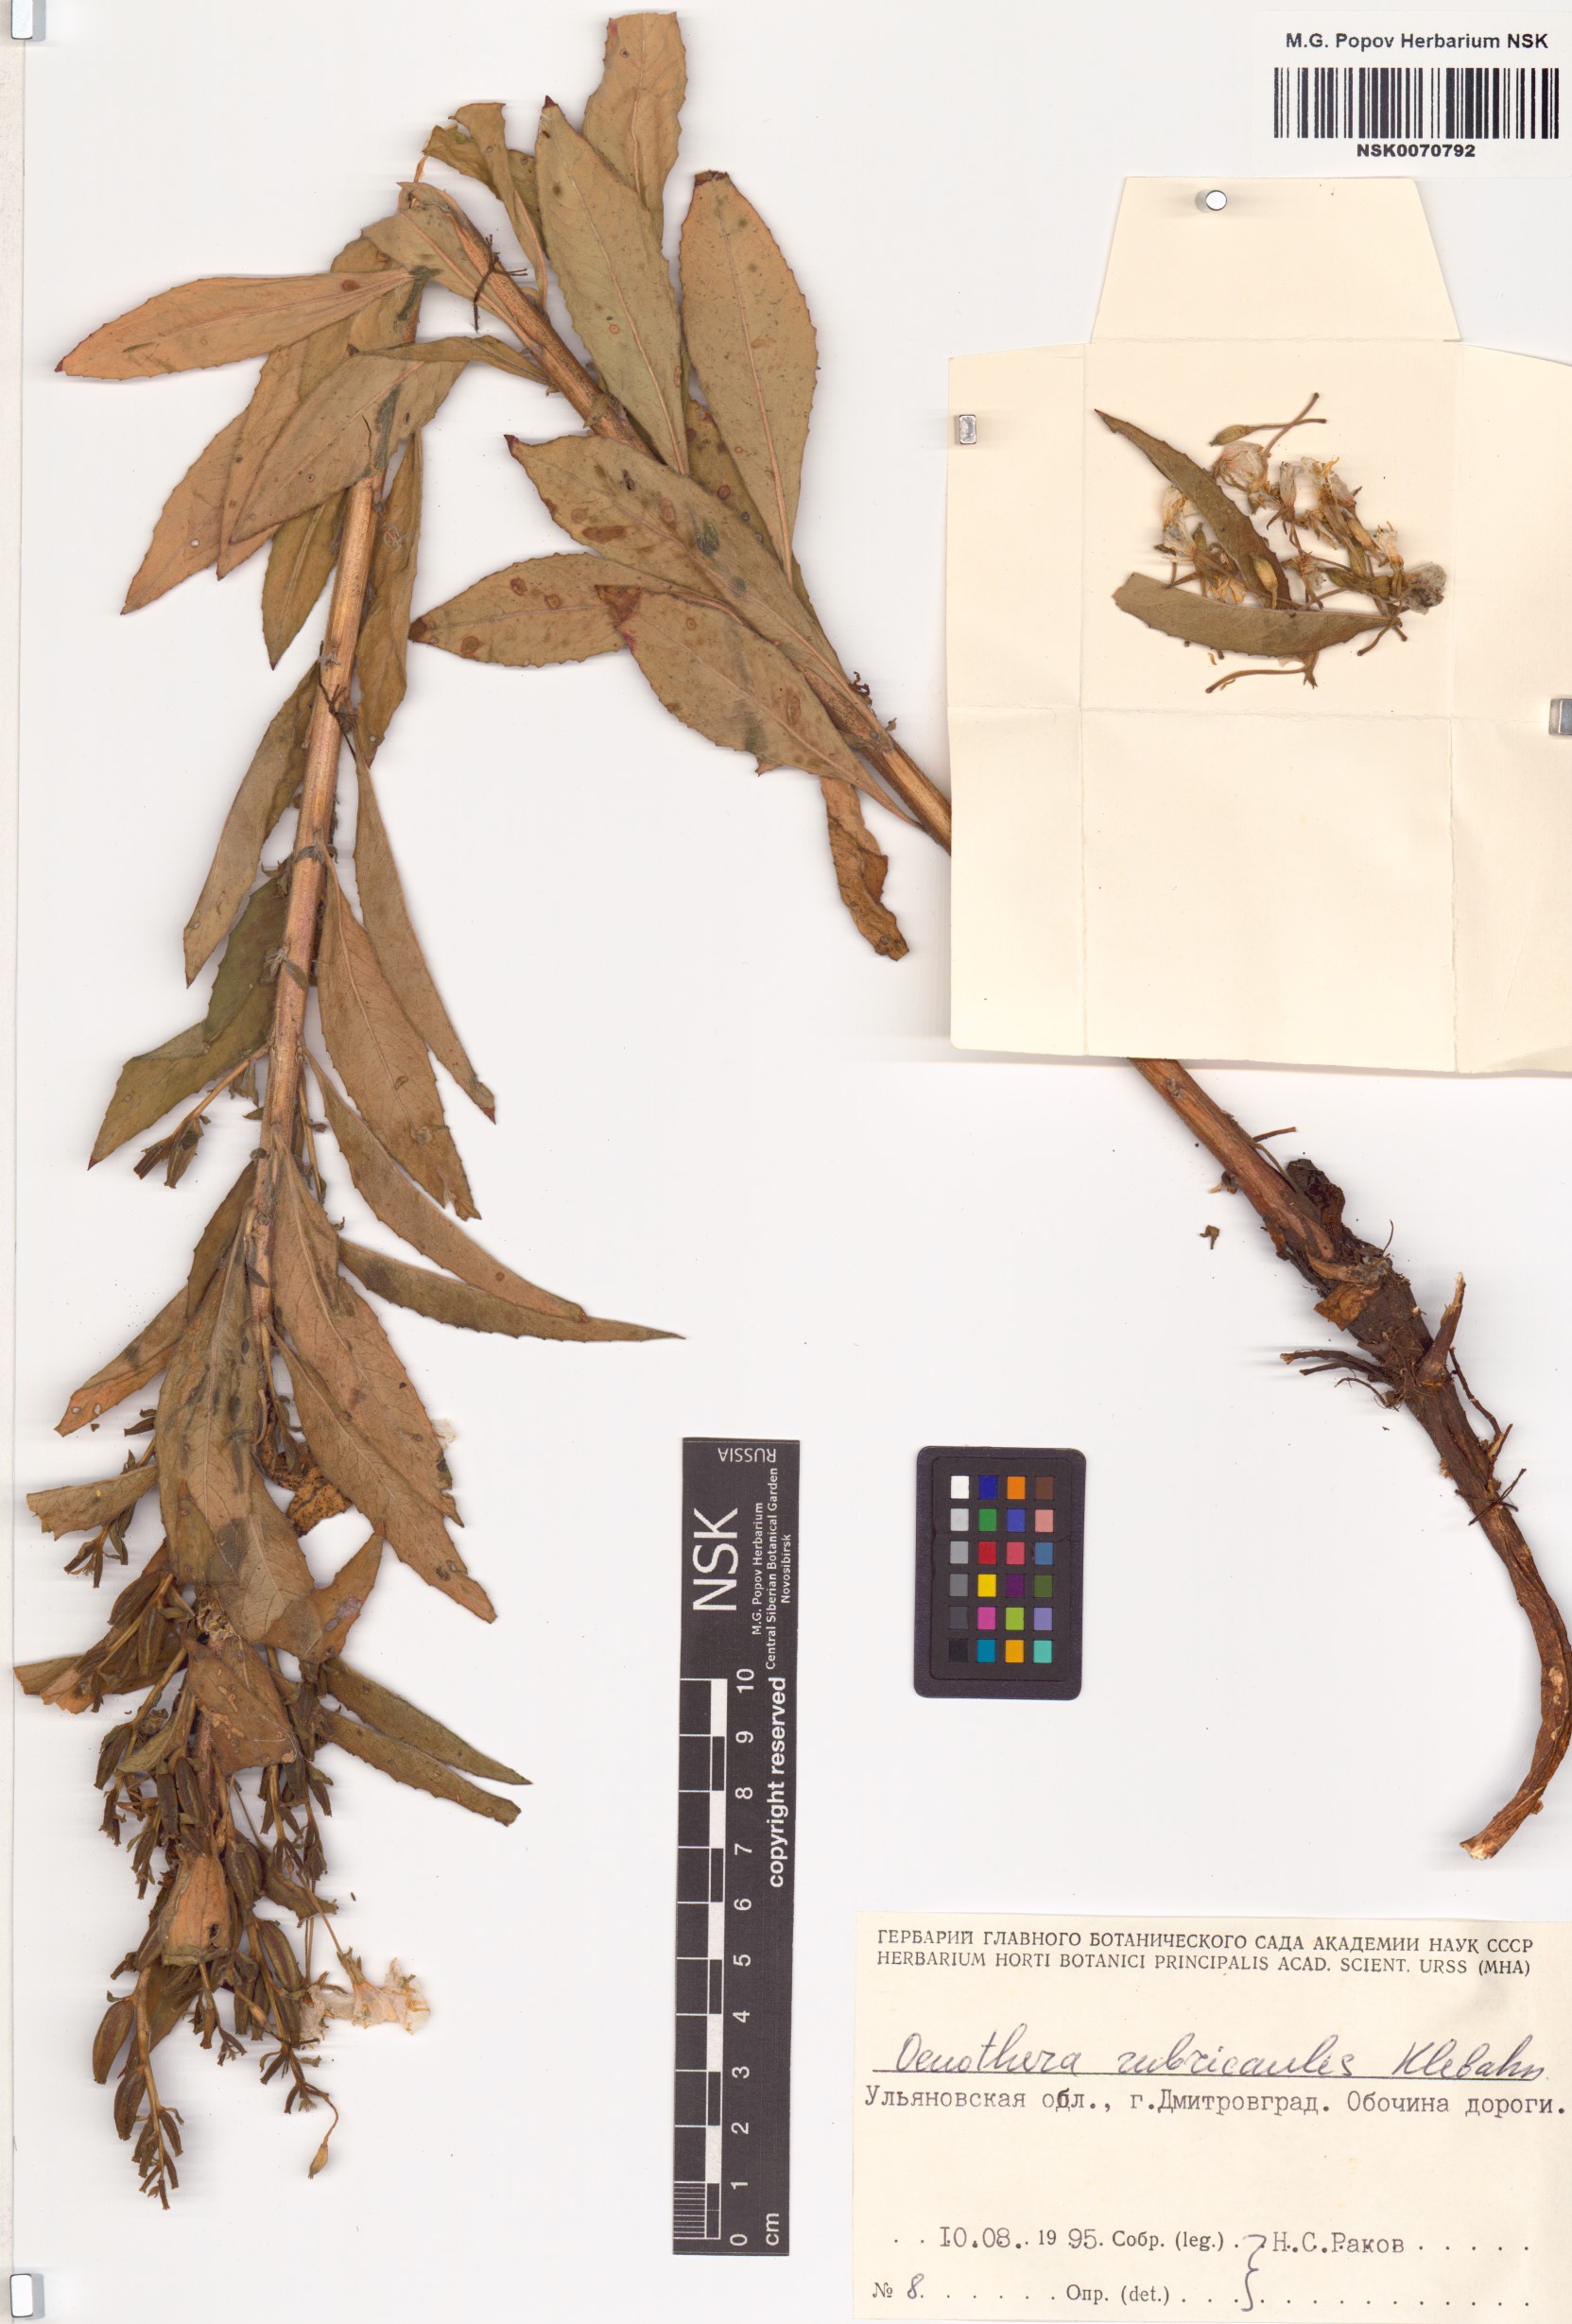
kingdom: Plantae
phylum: Tracheophyta
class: Magnoliopsida
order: Myrtales
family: Onagraceae
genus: Oenothera
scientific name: Oenothera rubricaulis
